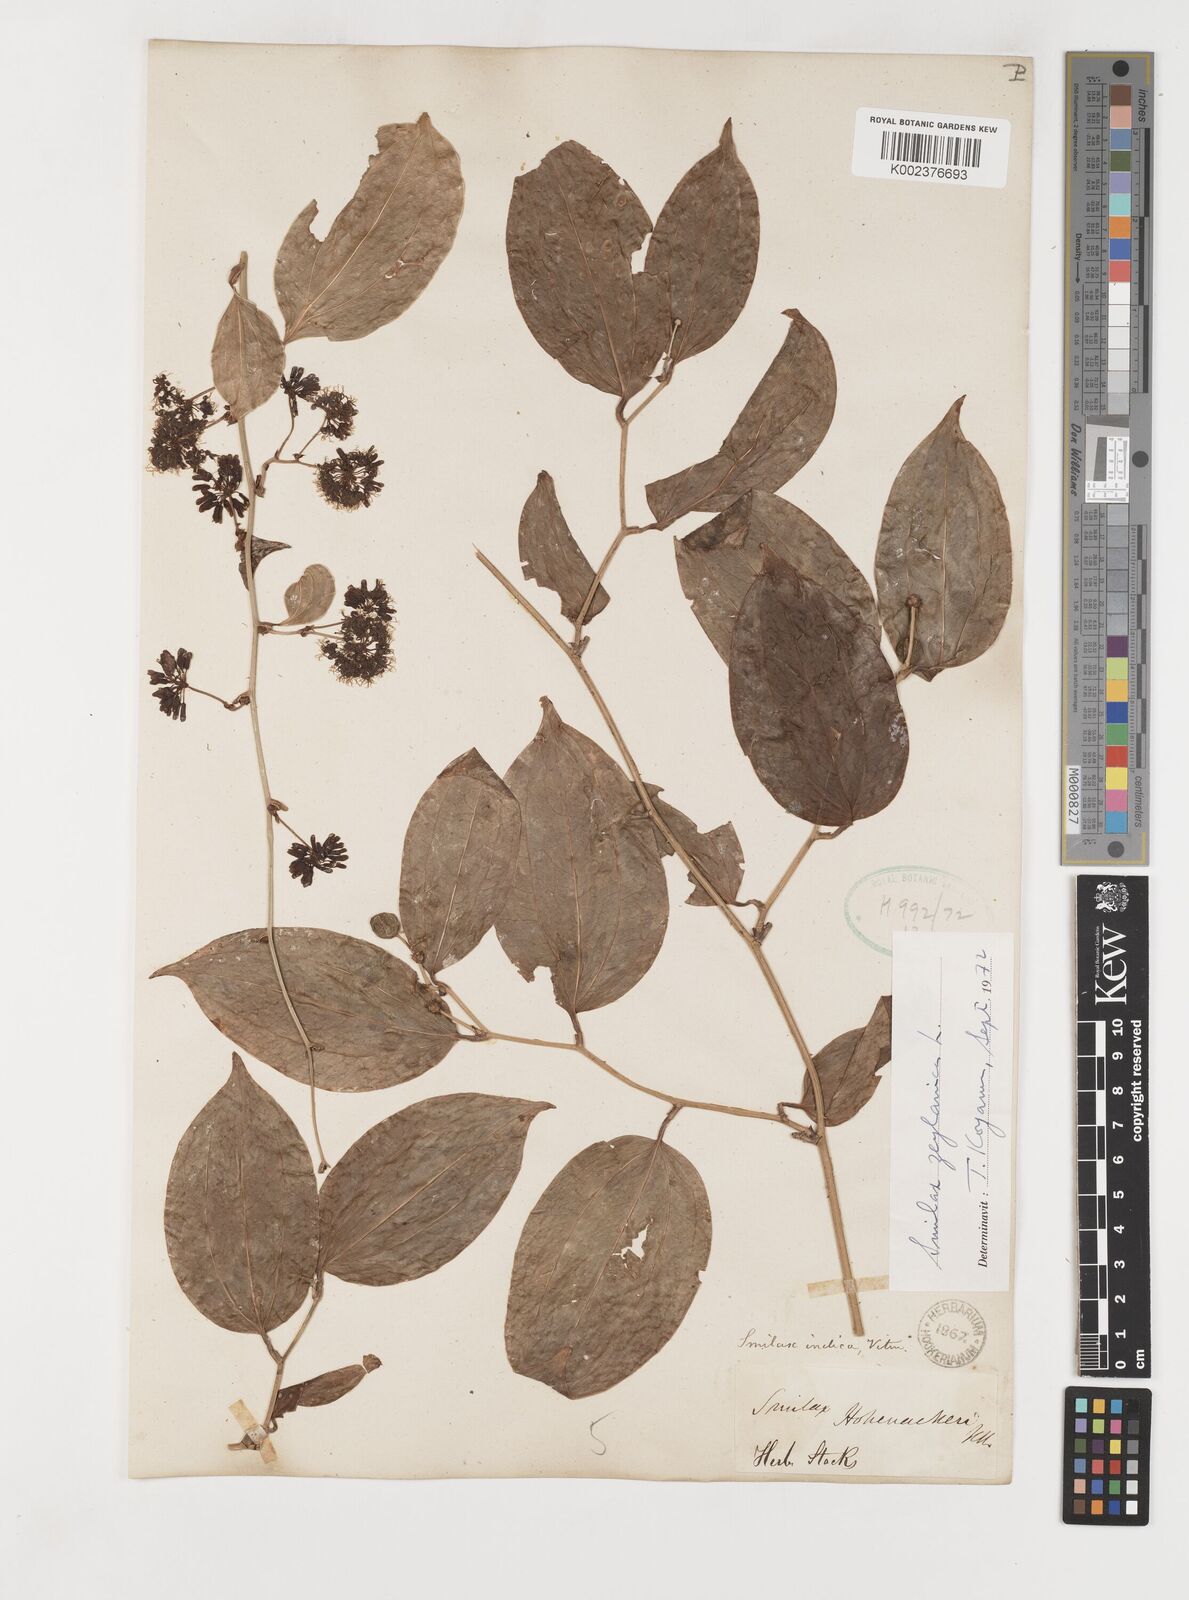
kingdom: Plantae
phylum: Tracheophyta
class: Liliopsida
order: Liliales
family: Smilacaceae
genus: Smilax
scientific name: Smilax zeylanica
